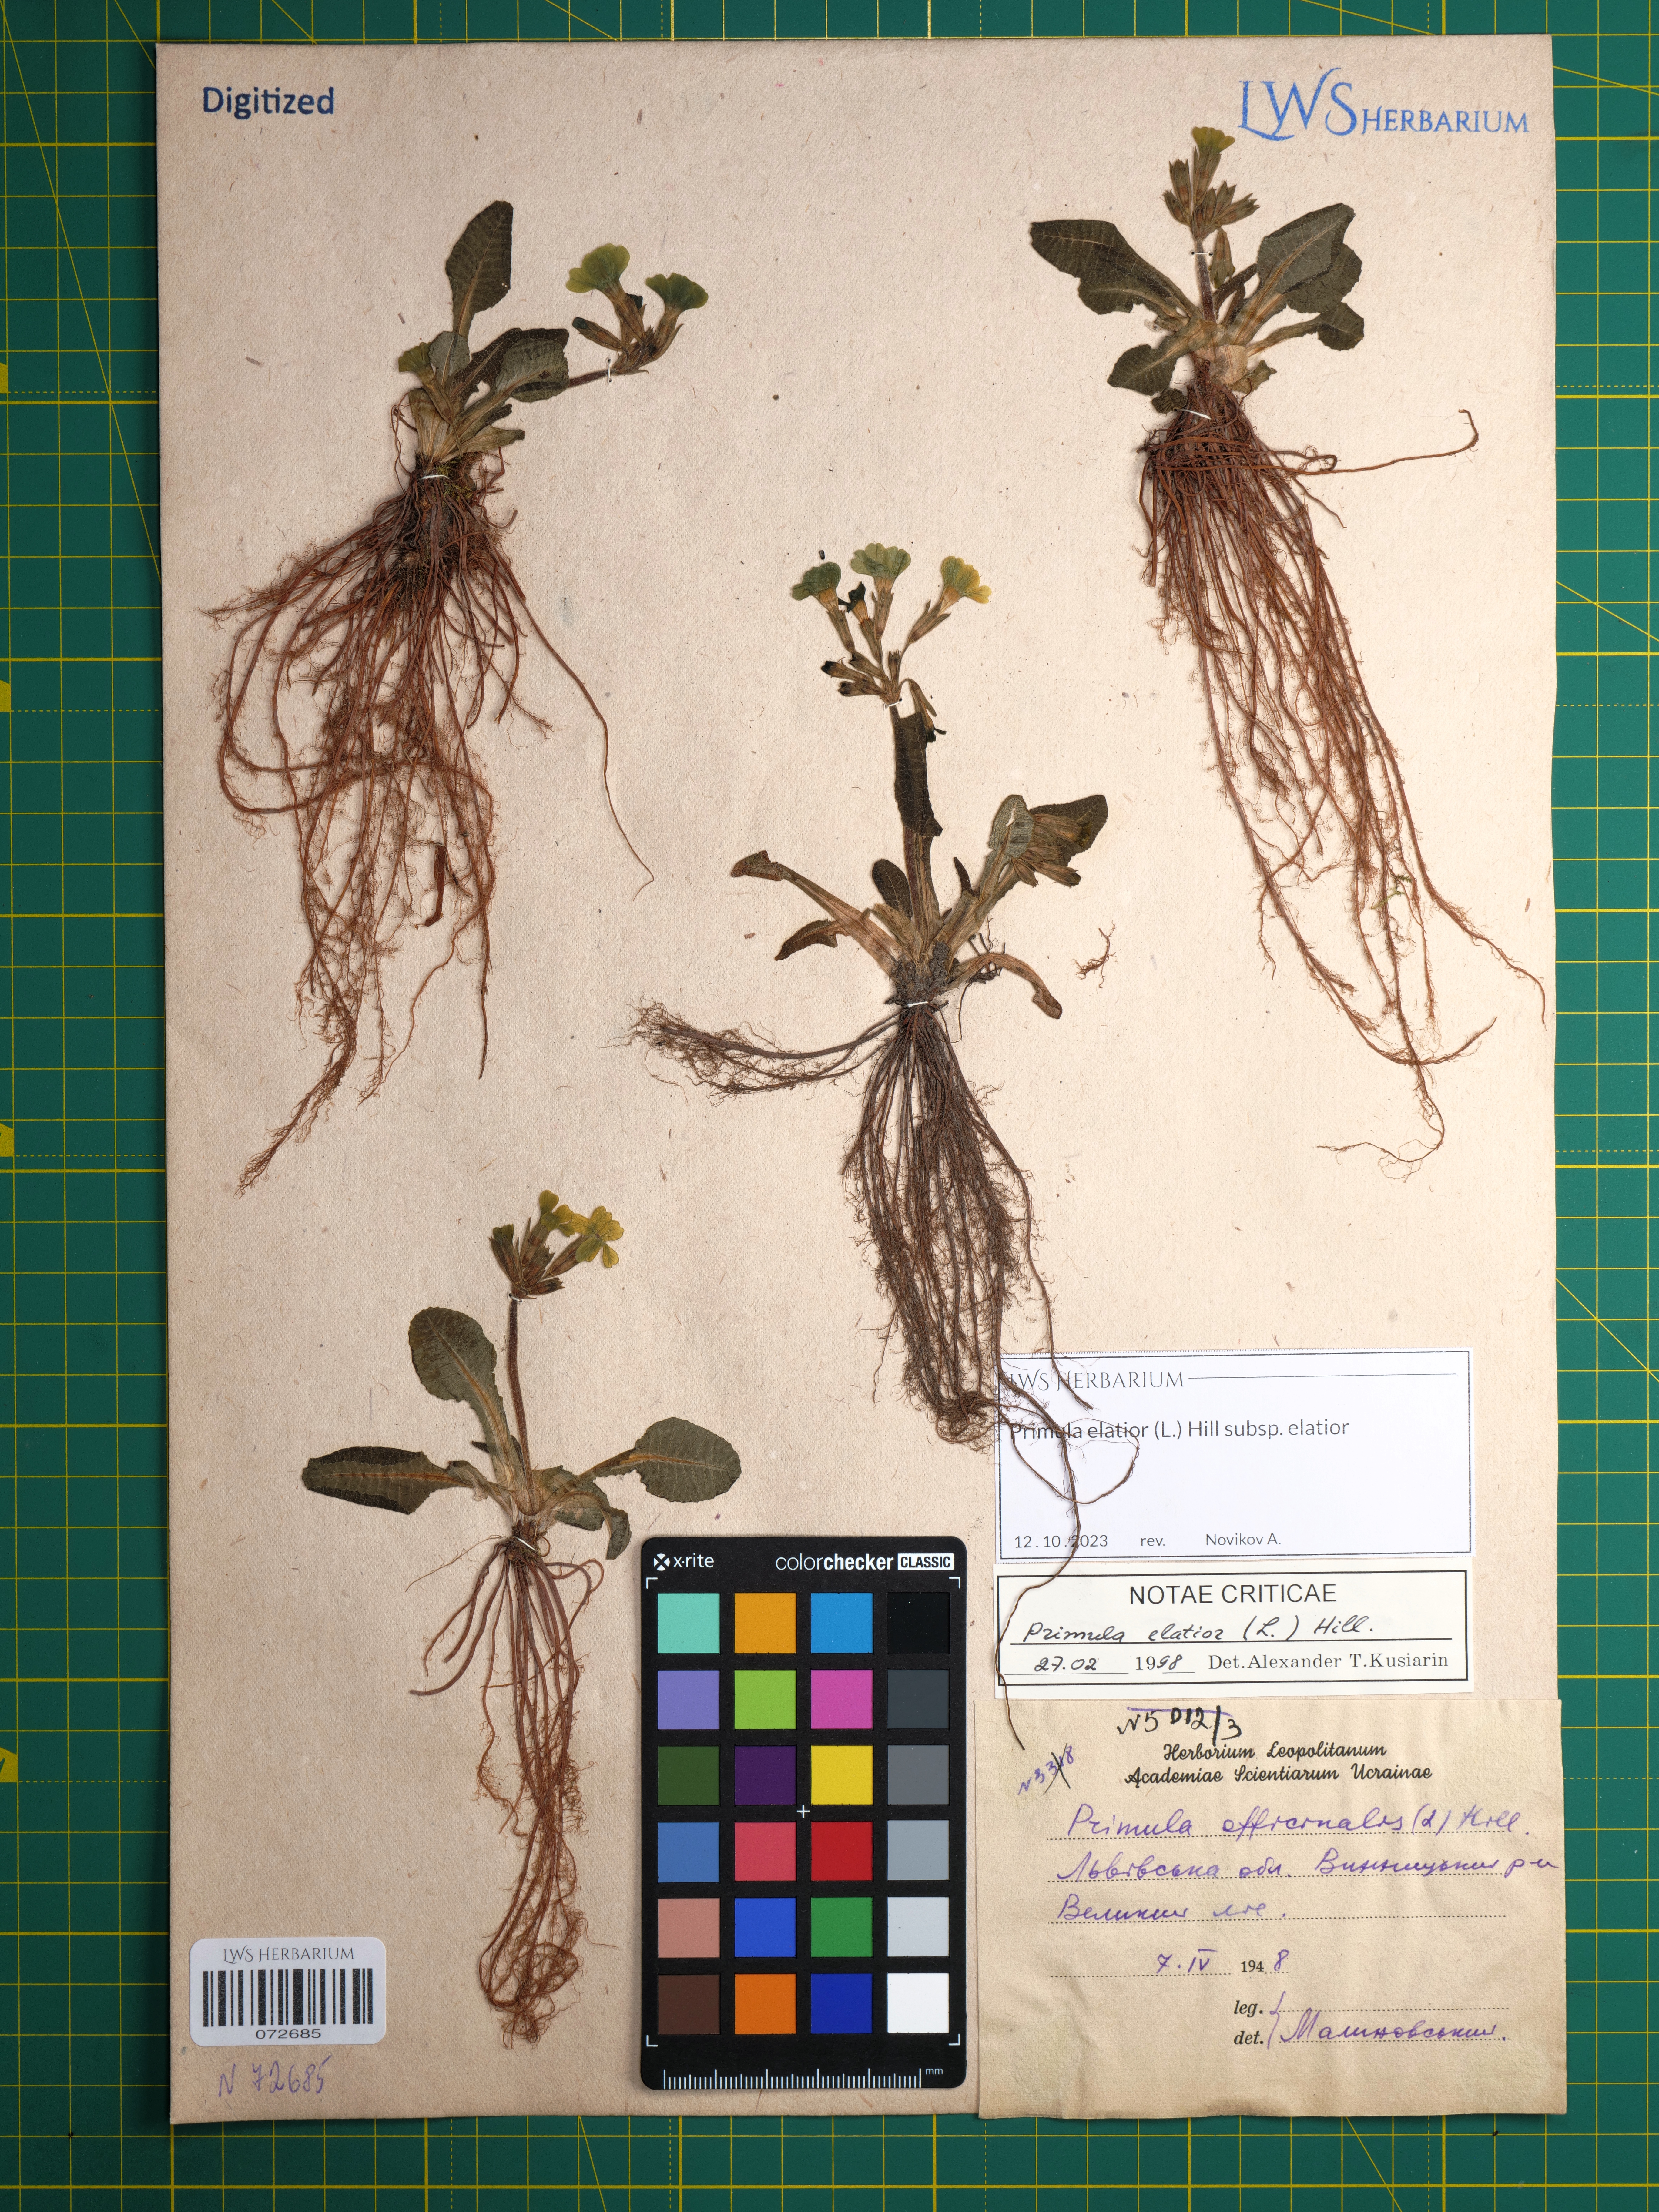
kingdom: Plantae
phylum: Tracheophyta
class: Magnoliopsida
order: Ericales
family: Primulaceae
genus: Primula
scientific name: Primula elatior
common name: Oxlip
